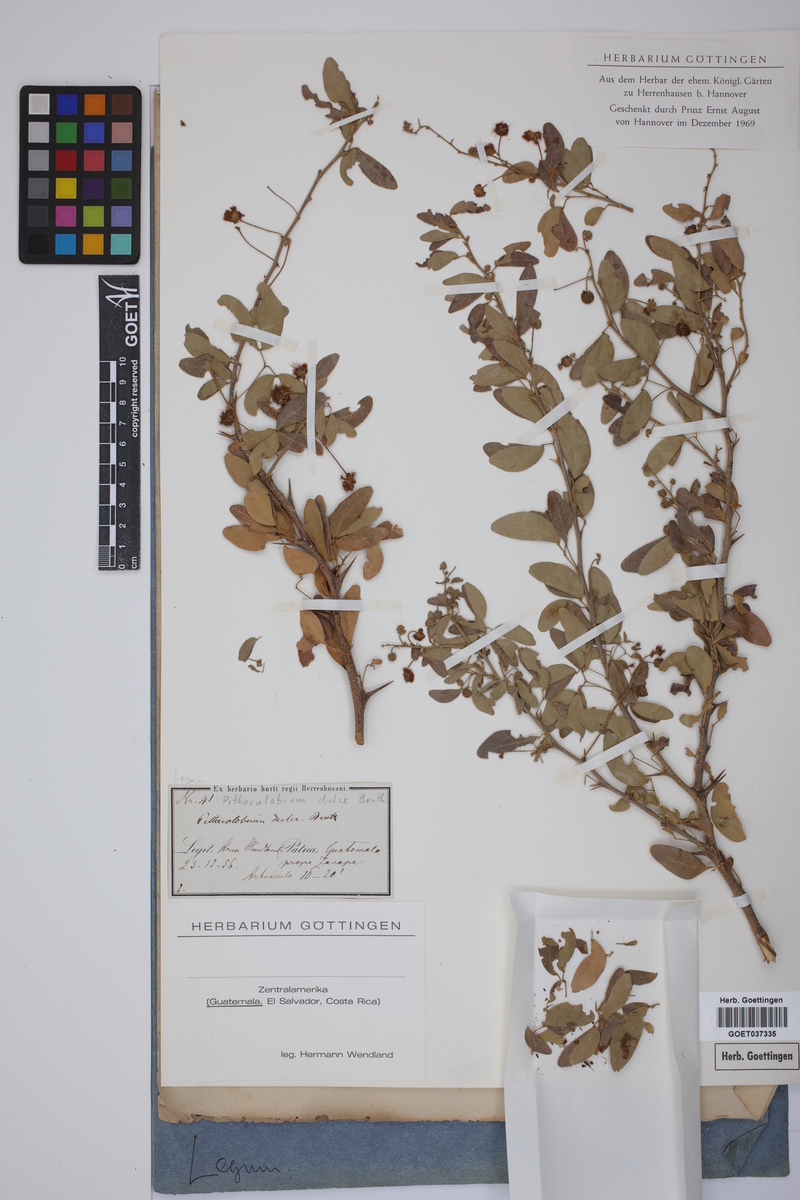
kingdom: Plantae
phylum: Tracheophyta
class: Magnoliopsida
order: Fabales
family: Fabaceae
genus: Pithecellobium
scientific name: Pithecellobium dulce
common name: Monkeypod
